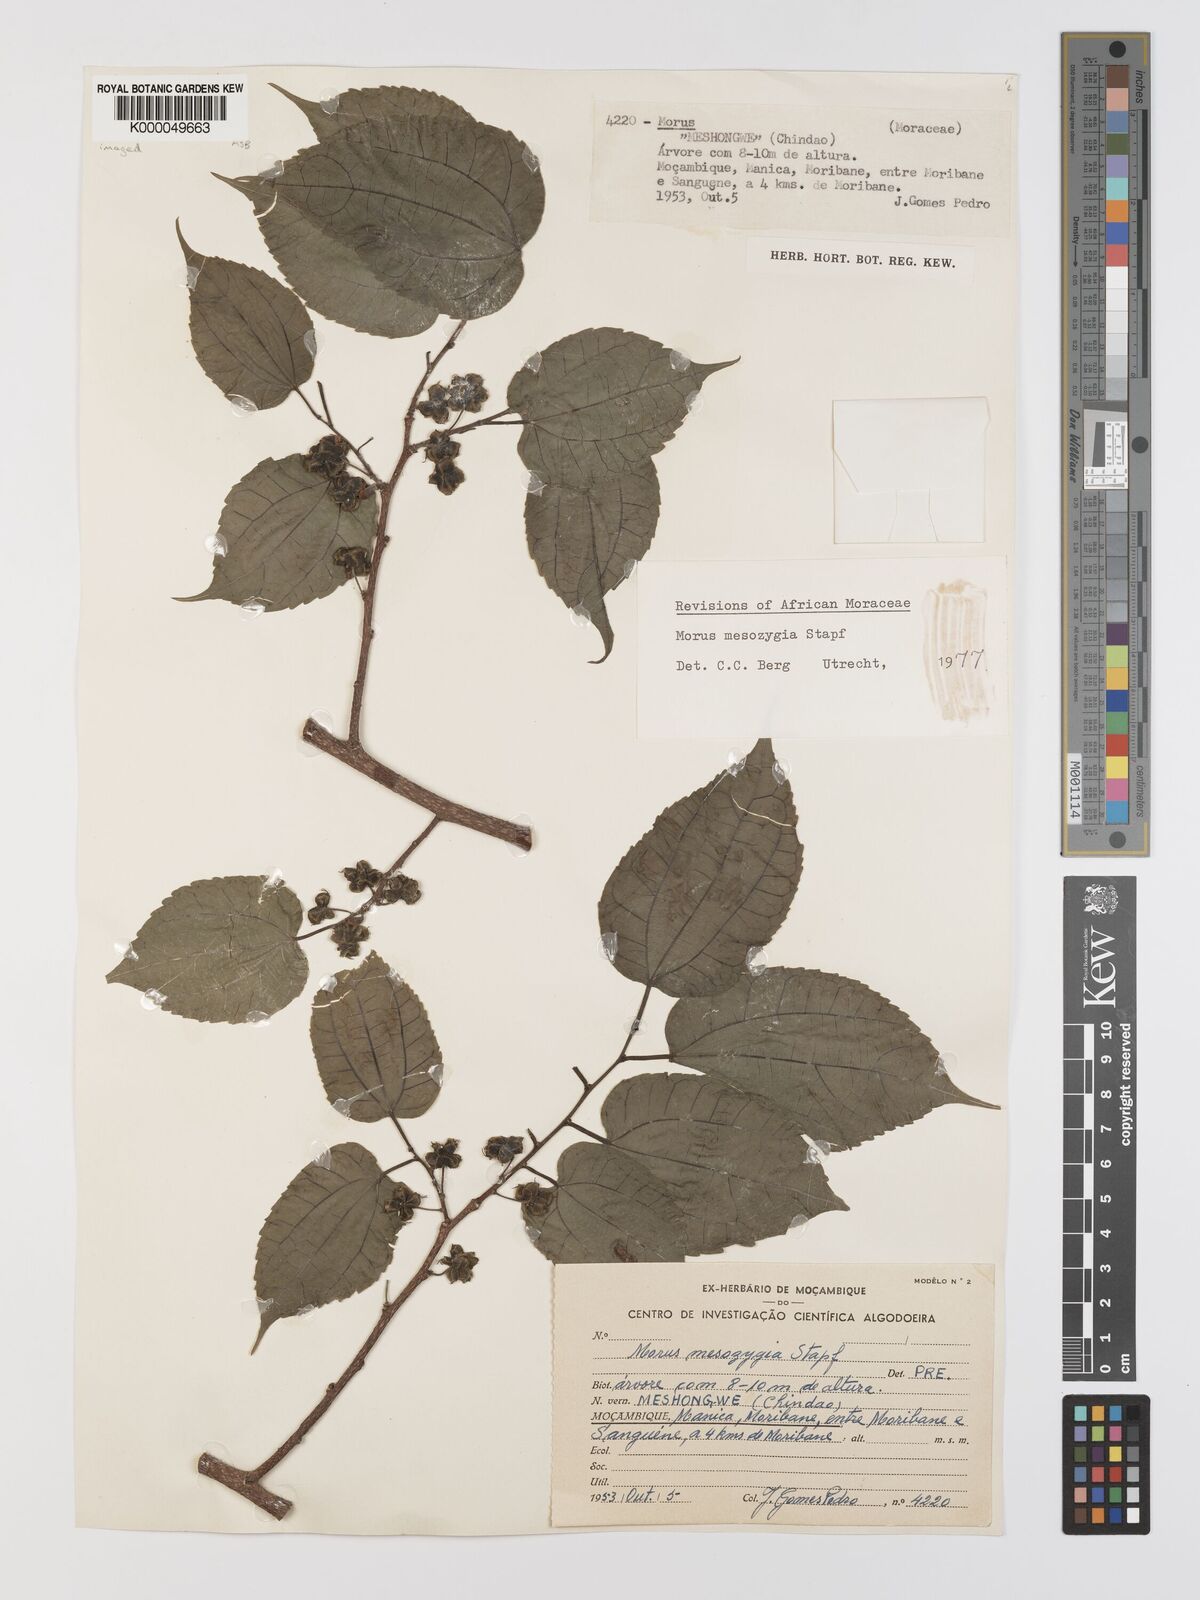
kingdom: Plantae
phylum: Tracheophyta
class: Magnoliopsida
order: Rosales
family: Moraceae
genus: Afromorus
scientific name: Afromorus mesozygia
